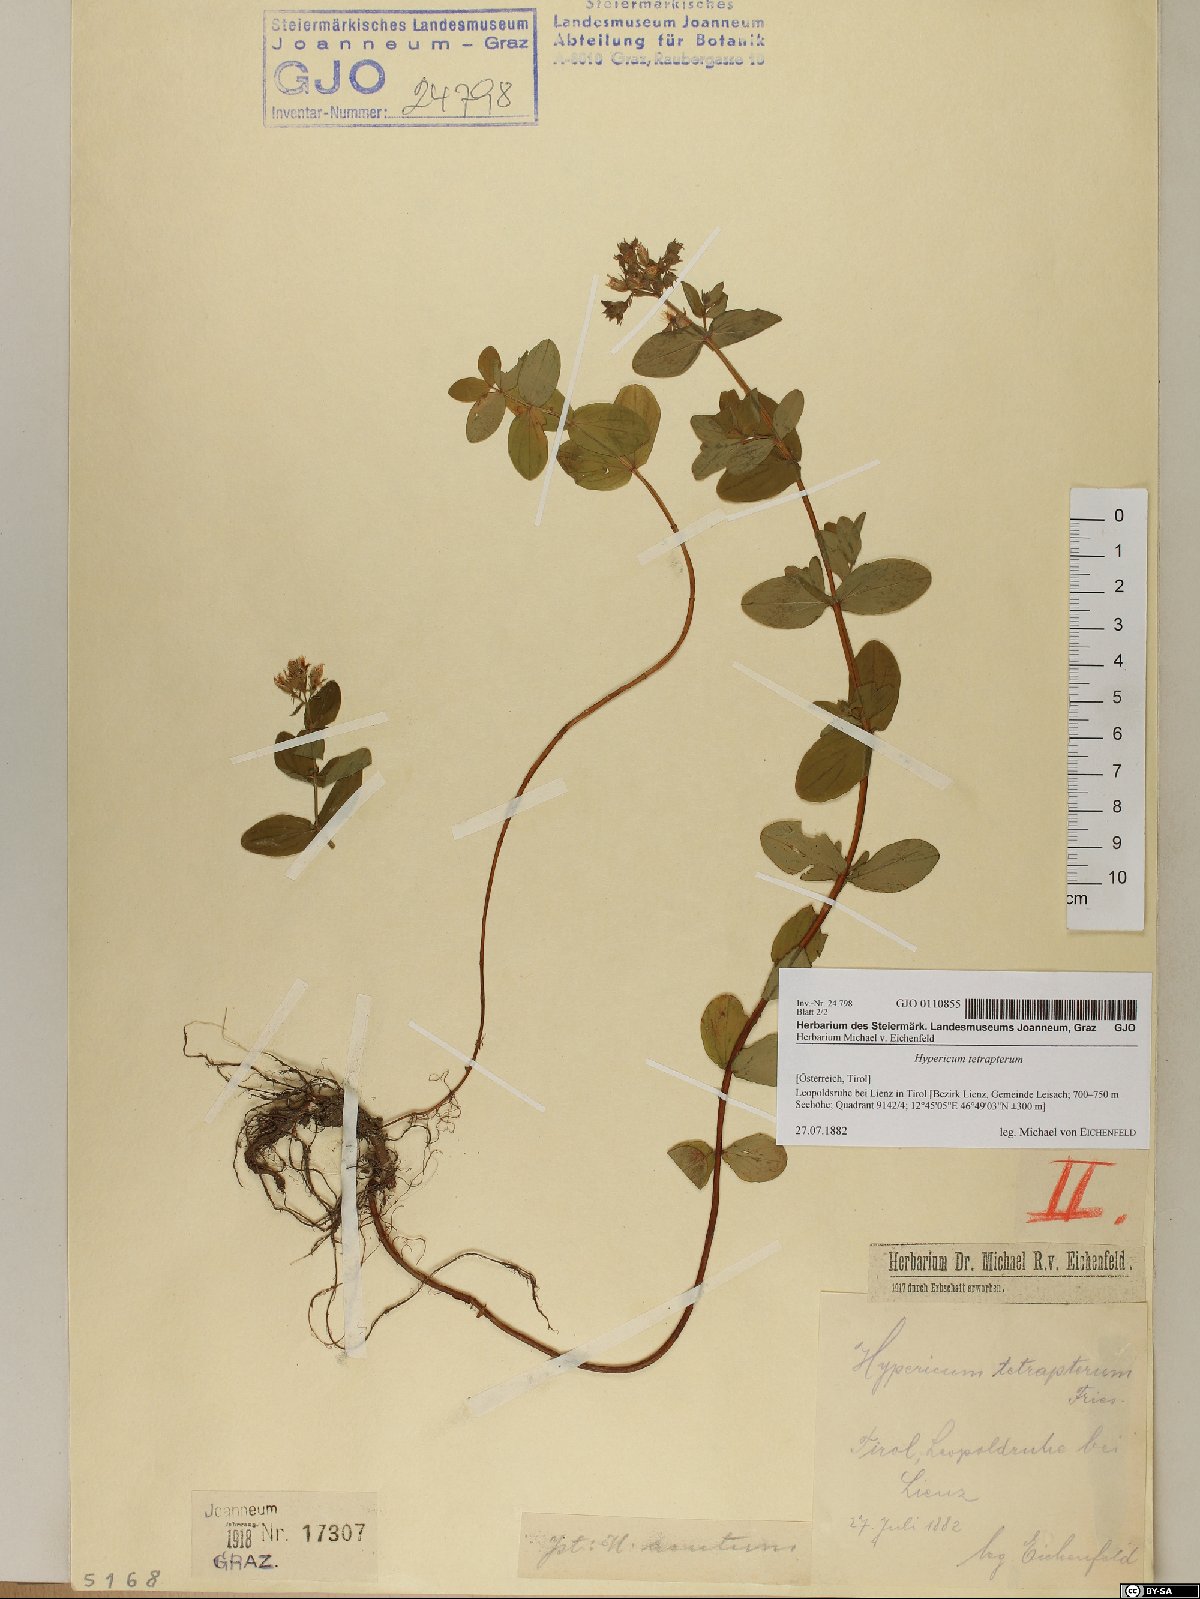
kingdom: Plantae
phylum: Tracheophyta
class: Magnoliopsida
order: Malpighiales
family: Hypericaceae
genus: Hypericum
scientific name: Hypericum tetrapterum
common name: Square-stalked st. john's-wort
